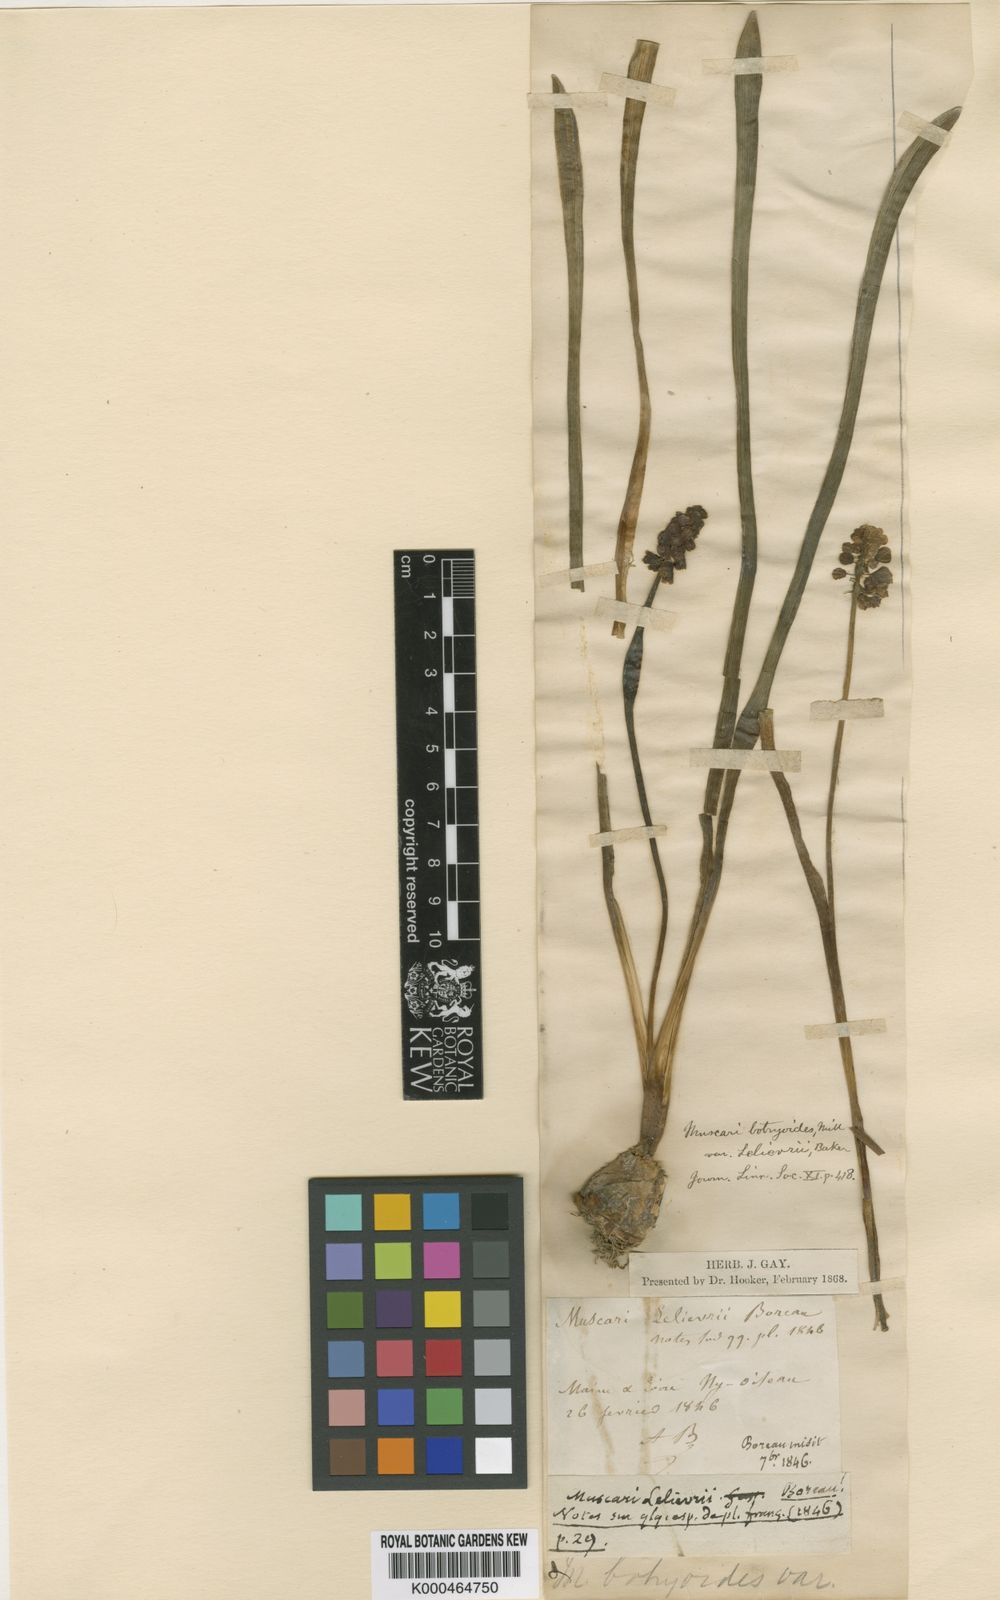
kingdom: Plantae
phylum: Tracheophyta
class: Liliopsida
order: Asparagales
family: Asparagaceae
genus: Muscari
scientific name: Muscari botryoides
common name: Compact grape-hyacinth
